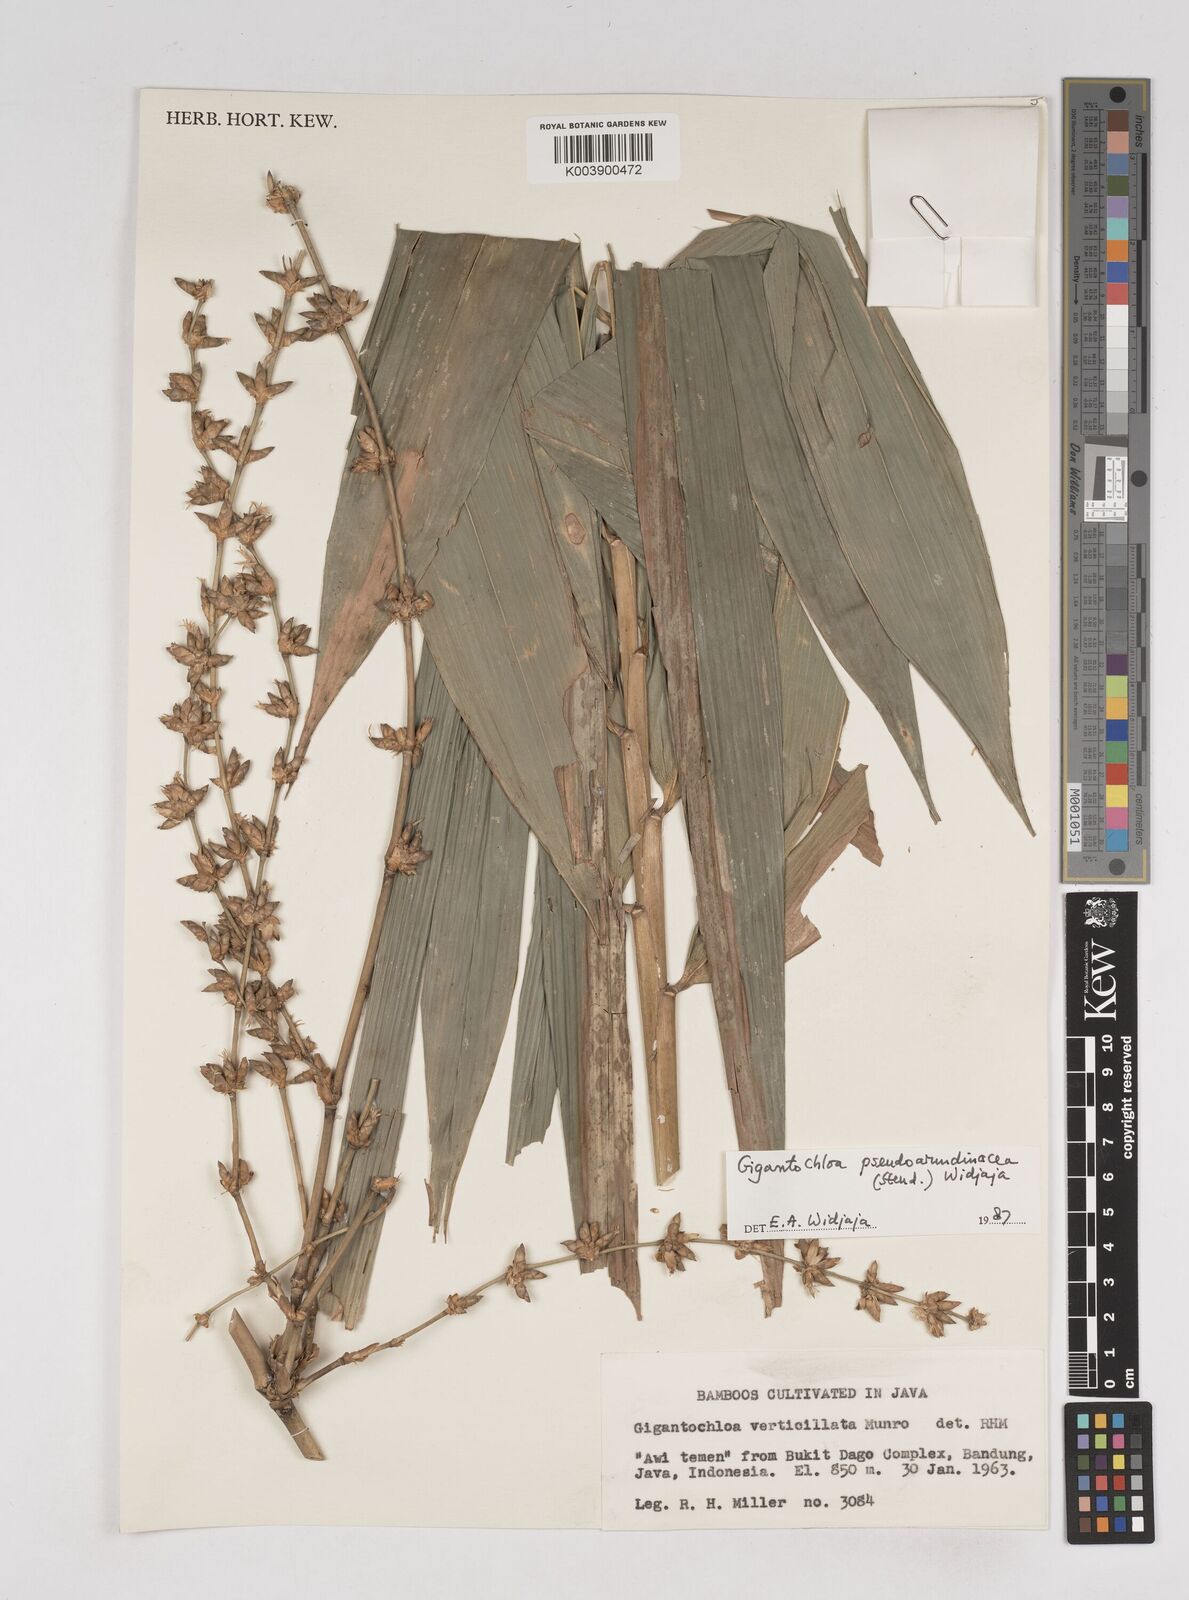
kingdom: Plantae
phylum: Tracheophyta
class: Liliopsida
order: Poales
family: Poaceae
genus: Gigantochloa
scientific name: Gigantochloa verticillata
